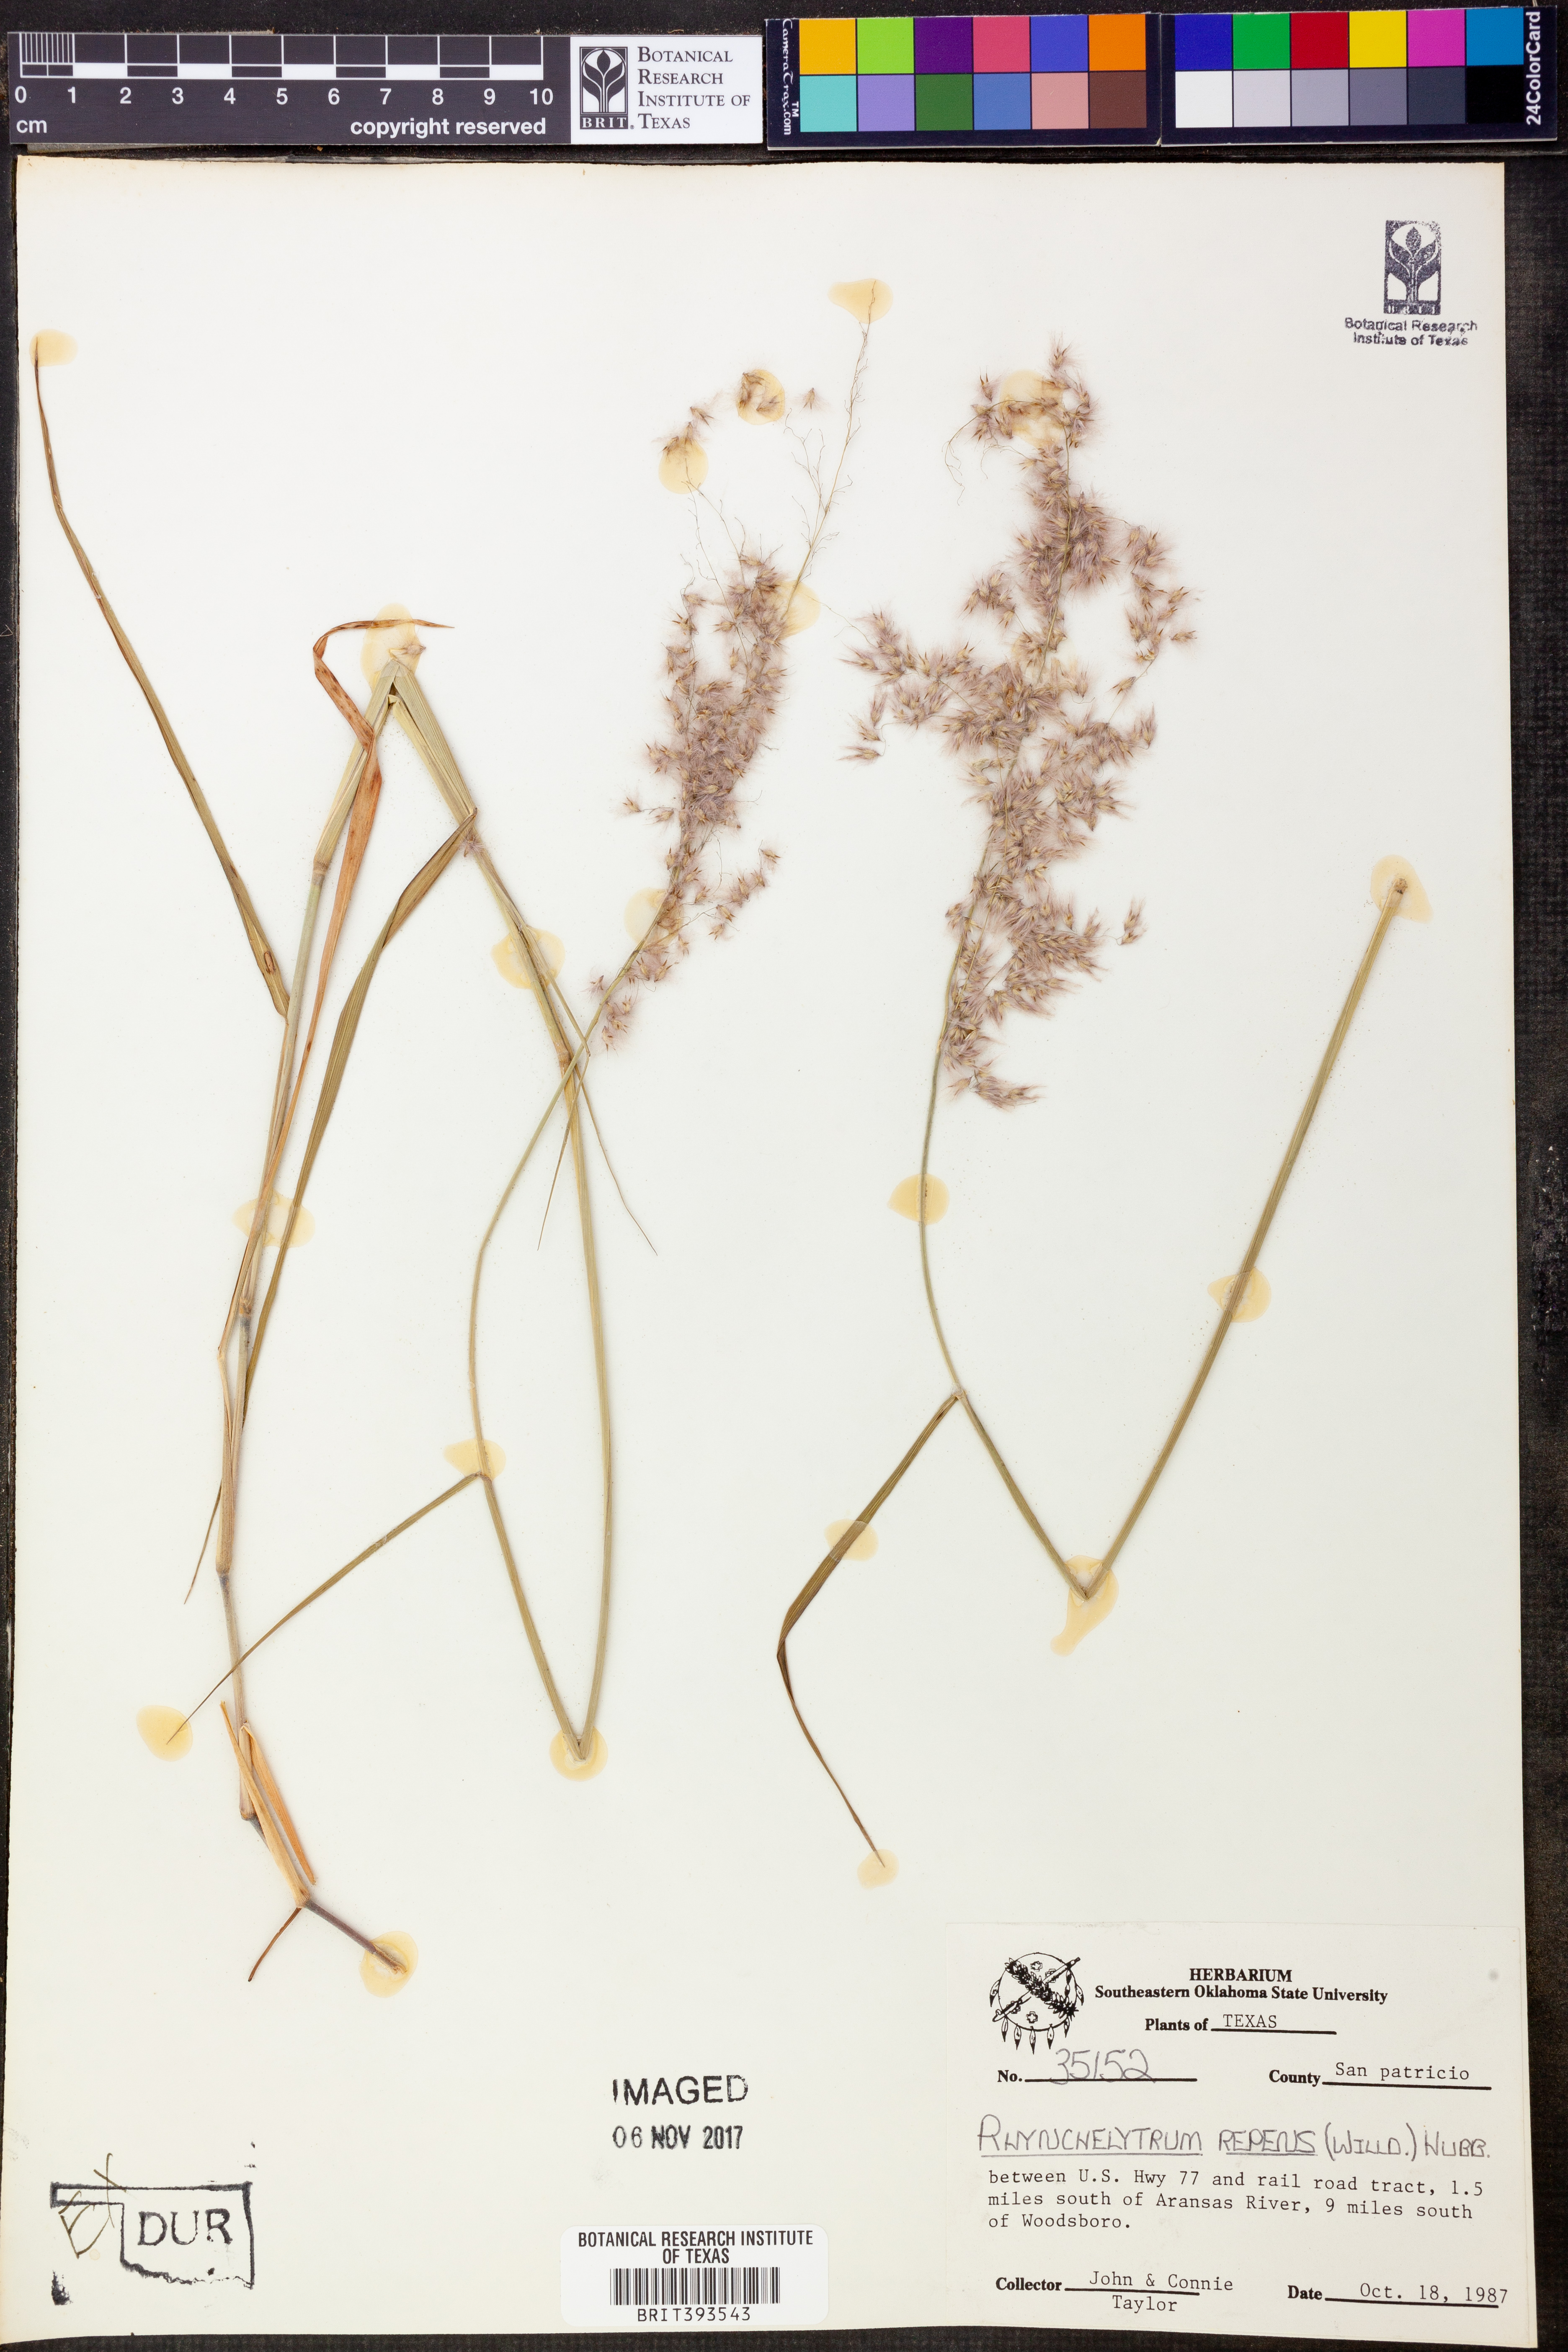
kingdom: Plantae
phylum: Tracheophyta
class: Liliopsida
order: Poales
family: Poaceae
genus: Melinis
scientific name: Melinis repens
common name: Rose natal grass
